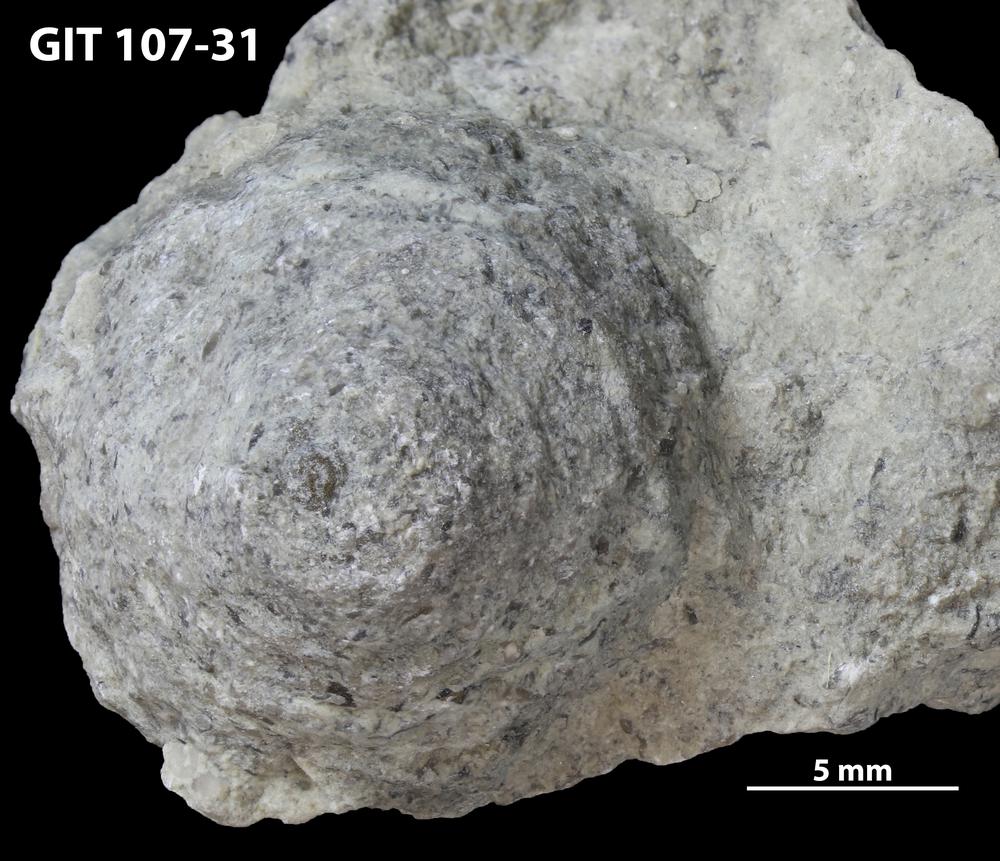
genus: Amphorichnus
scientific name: Amphorichnus
